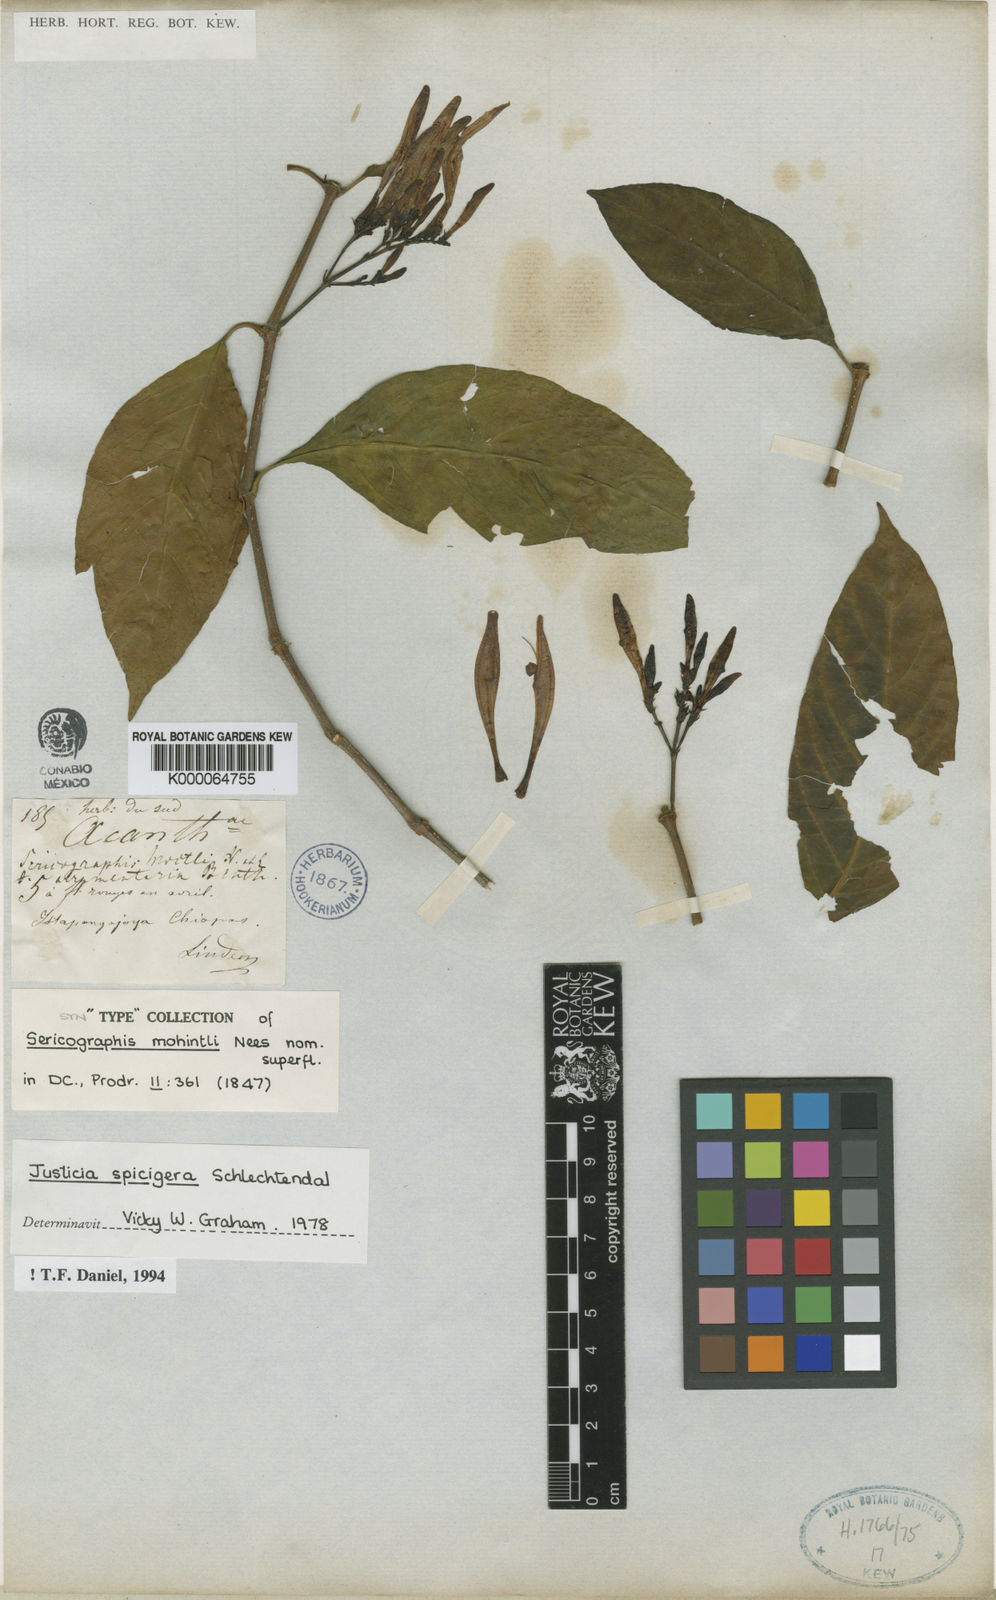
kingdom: Plantae
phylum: Tracheophyta
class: Magnoliopsida
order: Lamiales
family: Acanthaceae
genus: Justicia
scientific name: Justicia spicigera
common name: Mohintli
